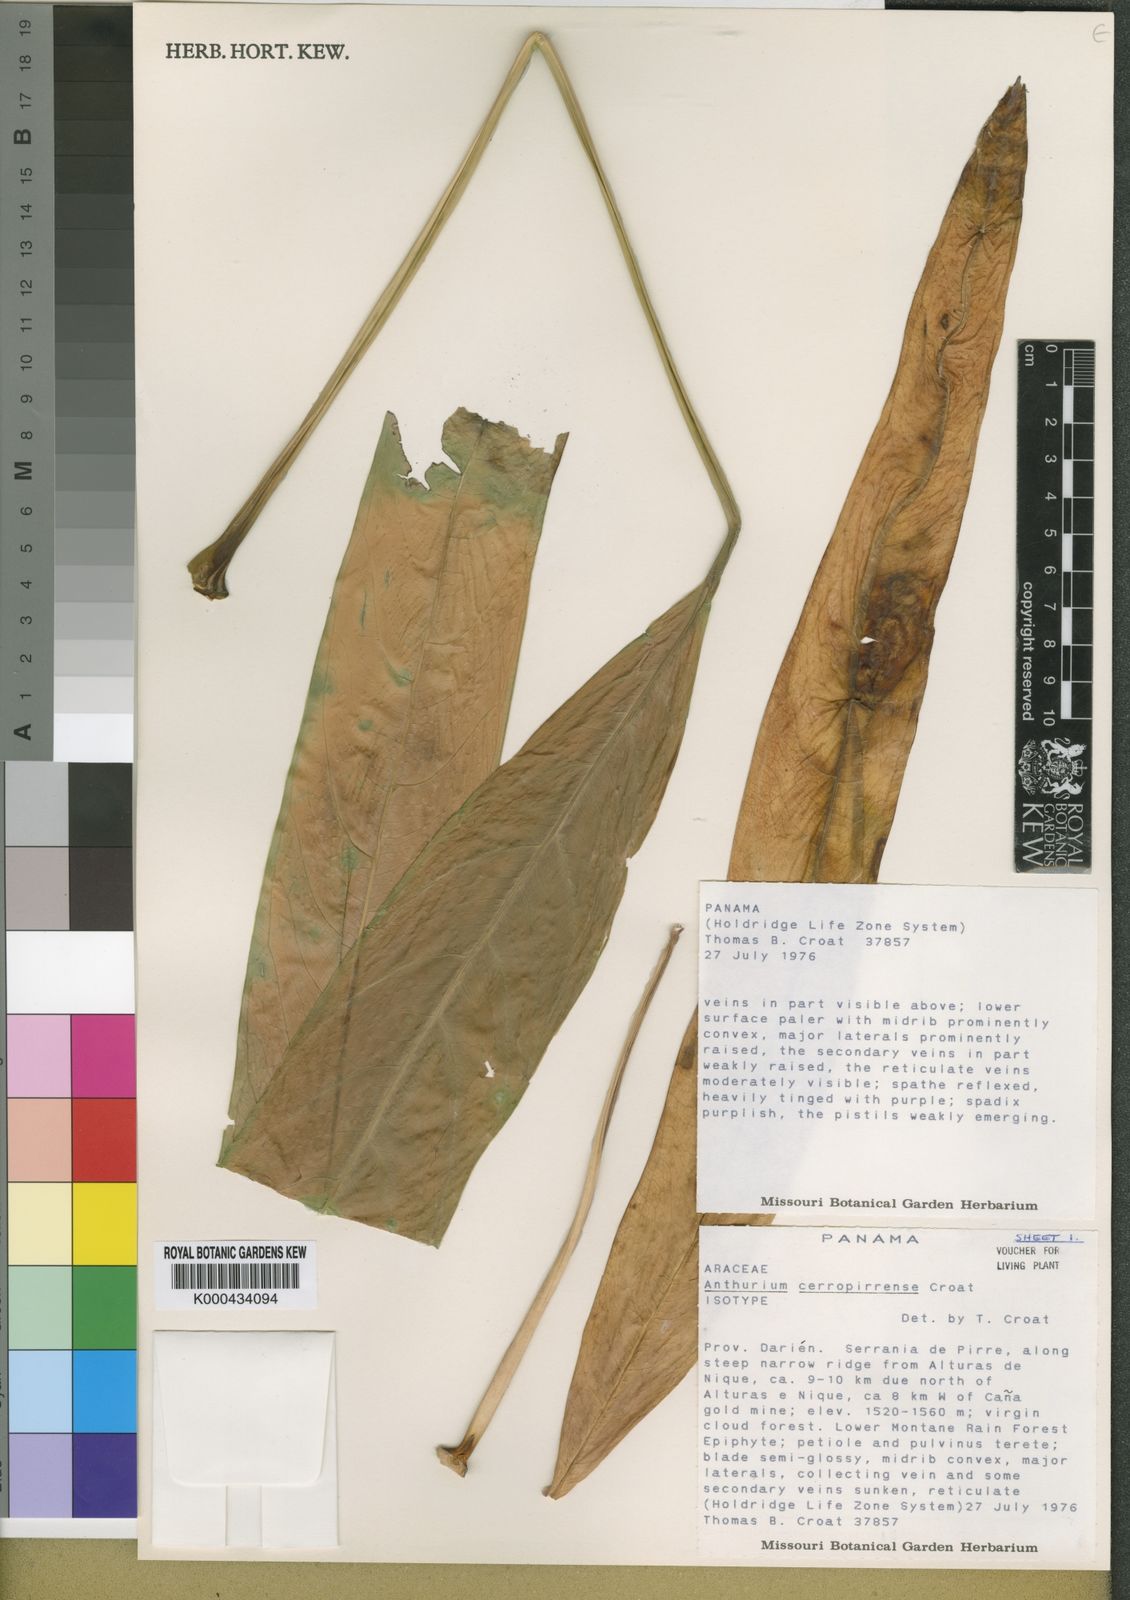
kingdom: Plantae
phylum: Tracheophyta
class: Liliopsida
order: Alismatales
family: Araceae
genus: Anthurium
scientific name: Anthurium cerropirrense
